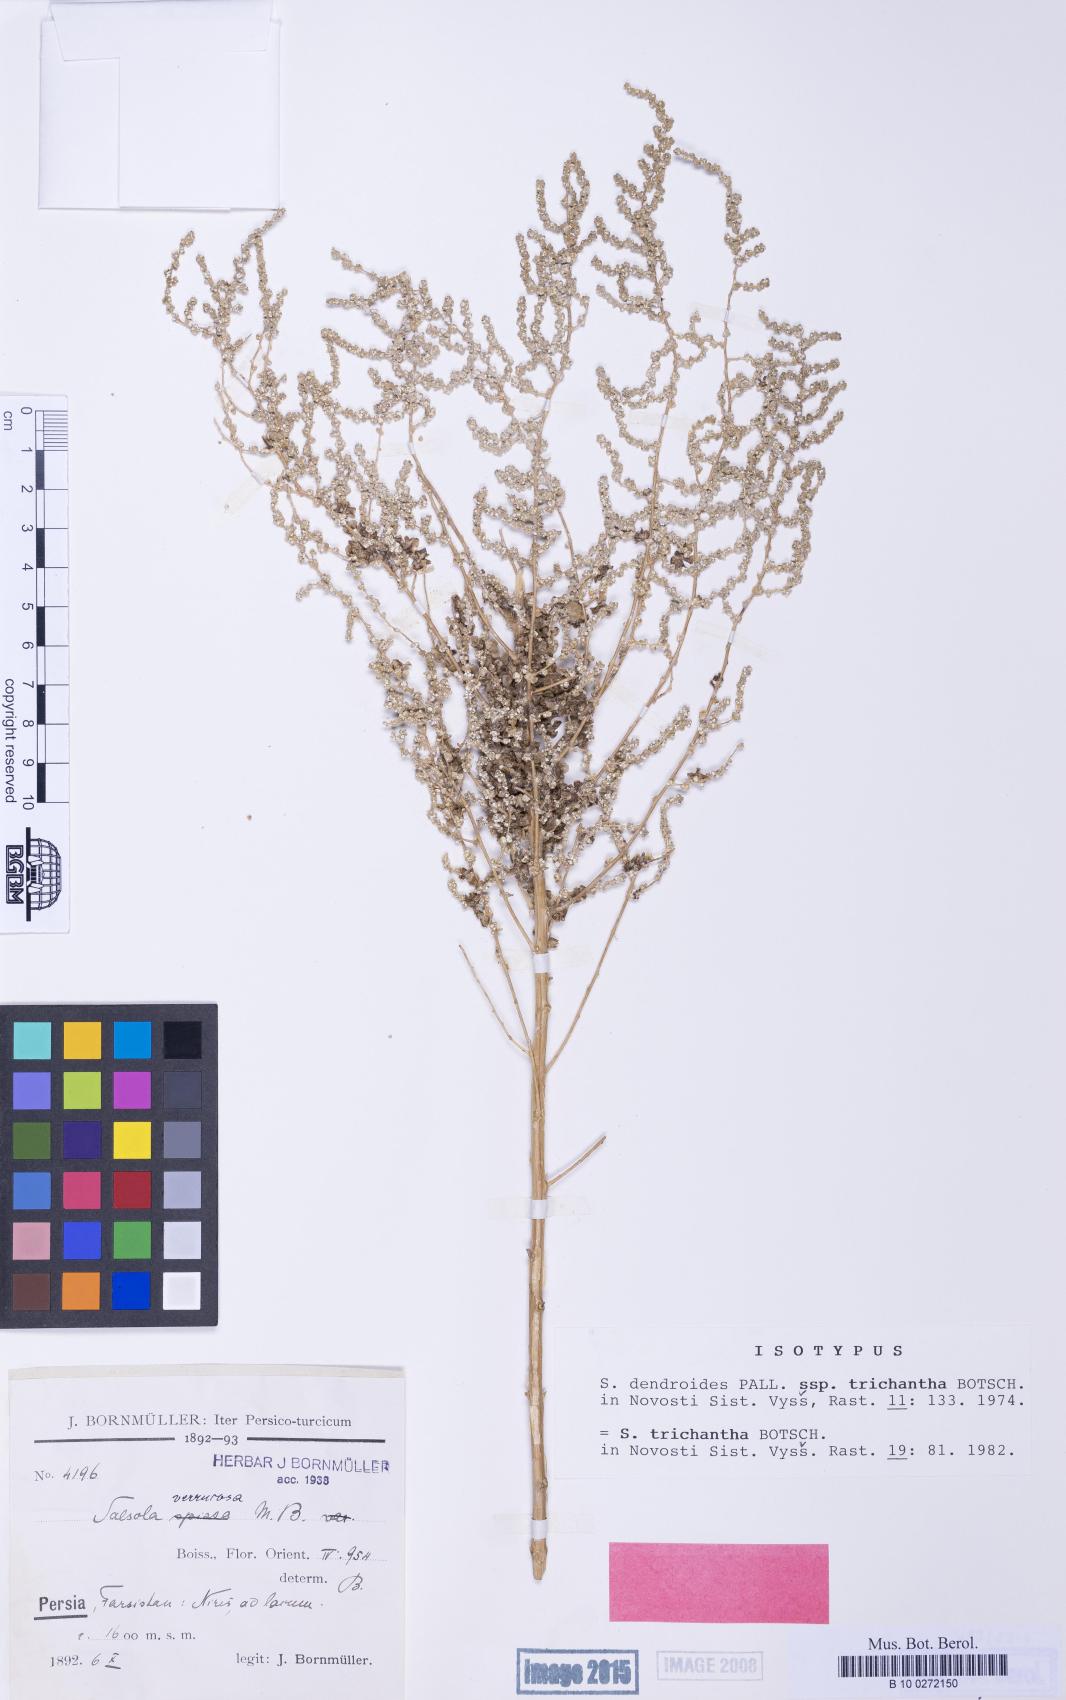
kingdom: Plantae
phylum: Tracheophyta
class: Magnoliopsida
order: Caryophyllales
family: Amaranthaceae
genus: Nitrosalsola
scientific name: Nitrosalsola dendroides
